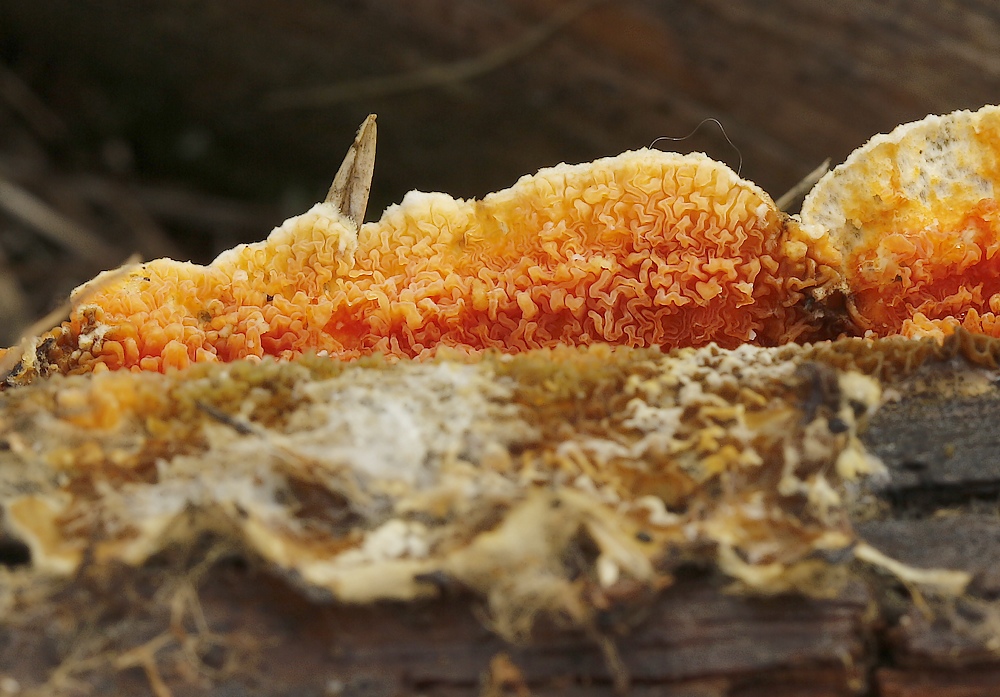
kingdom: Fungi
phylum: Basidiomycota
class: Agaricomycetes
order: Boletales
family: Hygrophoropsidaceae
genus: Leucogyrophana
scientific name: Leucogyrophana
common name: hussvamp
